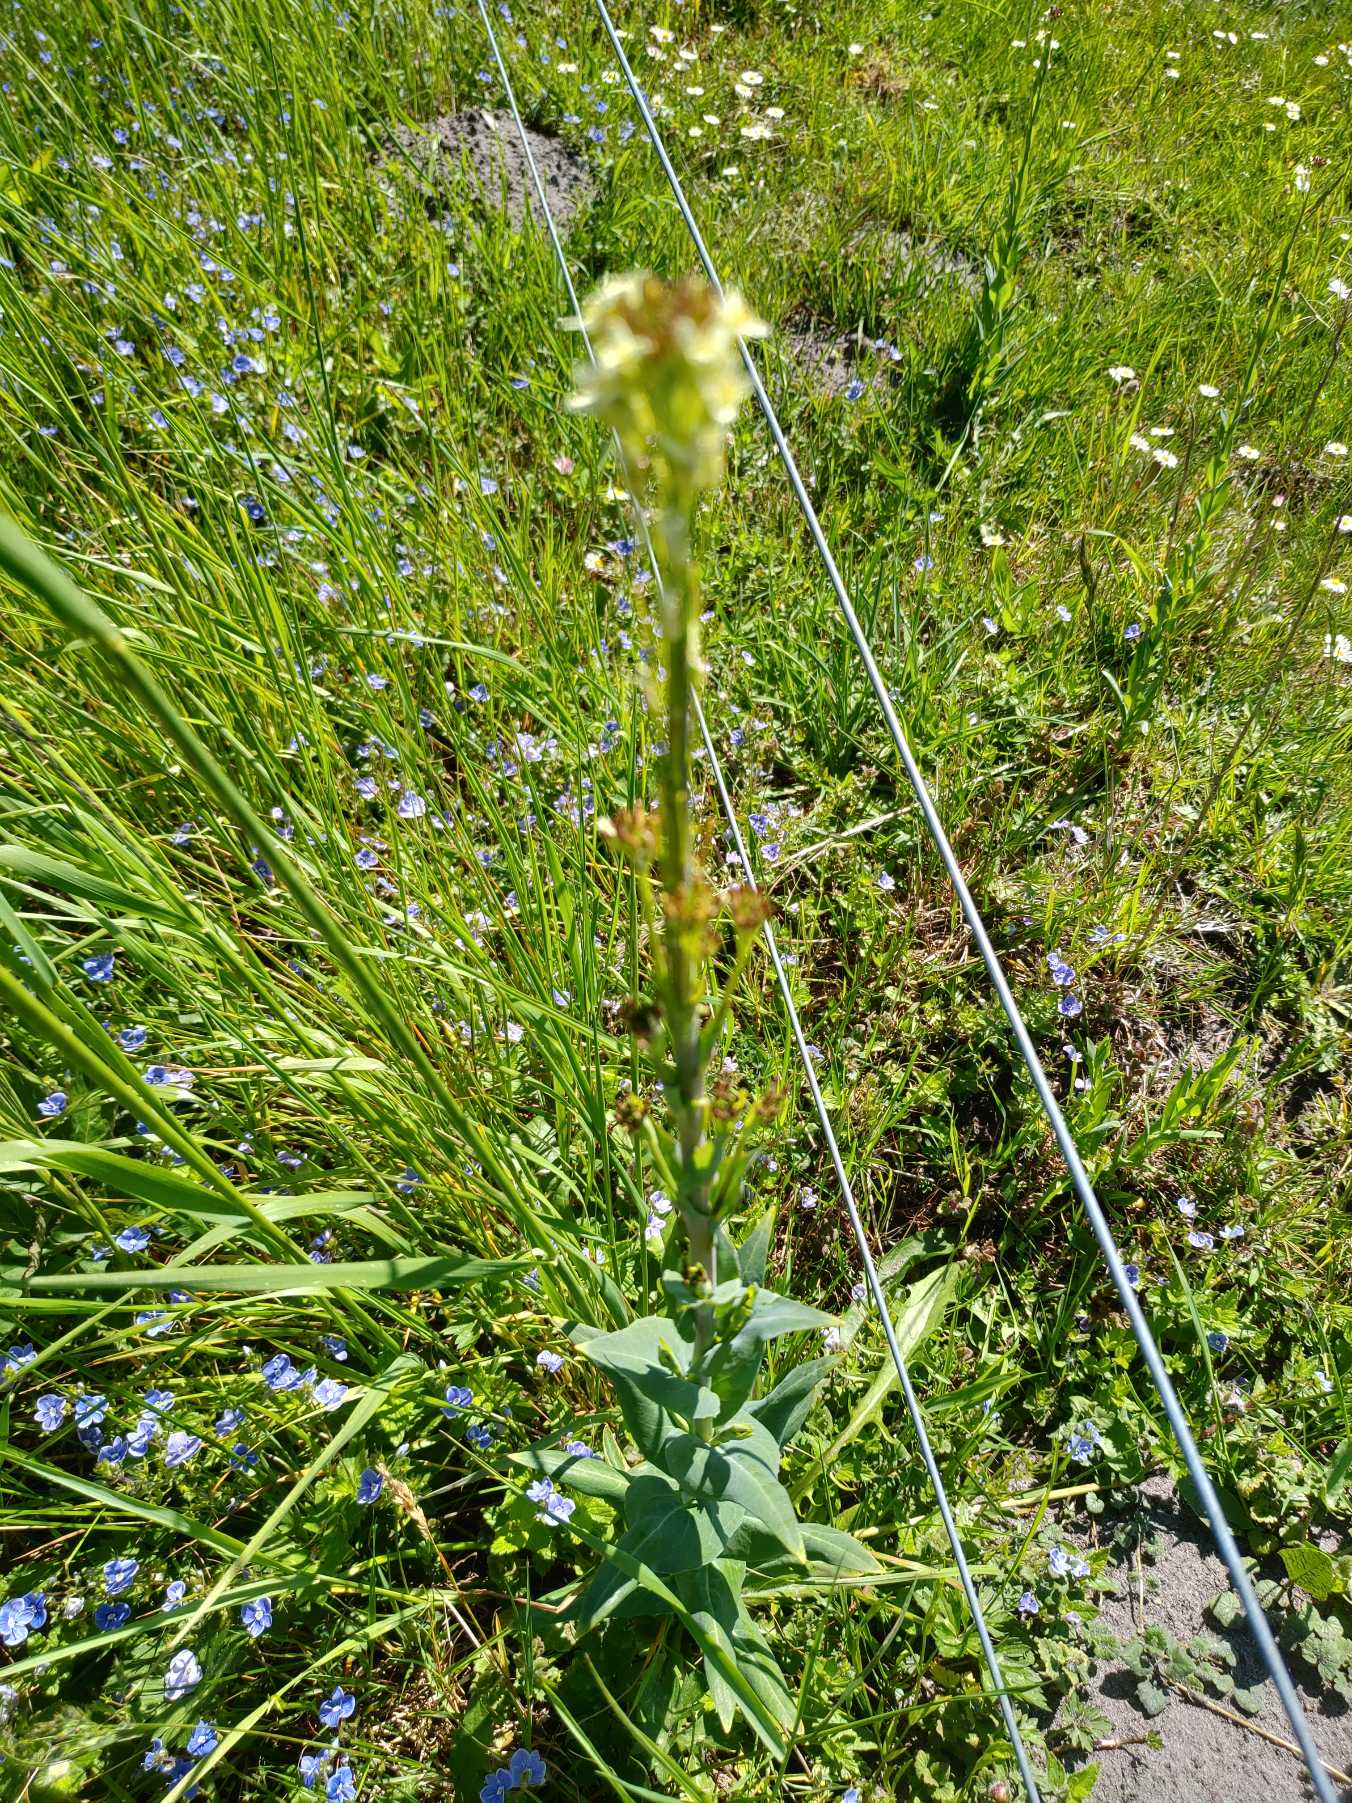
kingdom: Plantae
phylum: Tracheophyta
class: Magnoliopsida
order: Brassicales
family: Brassicaceae
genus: Turritis
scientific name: Turritis glabra
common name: Tårnurt
